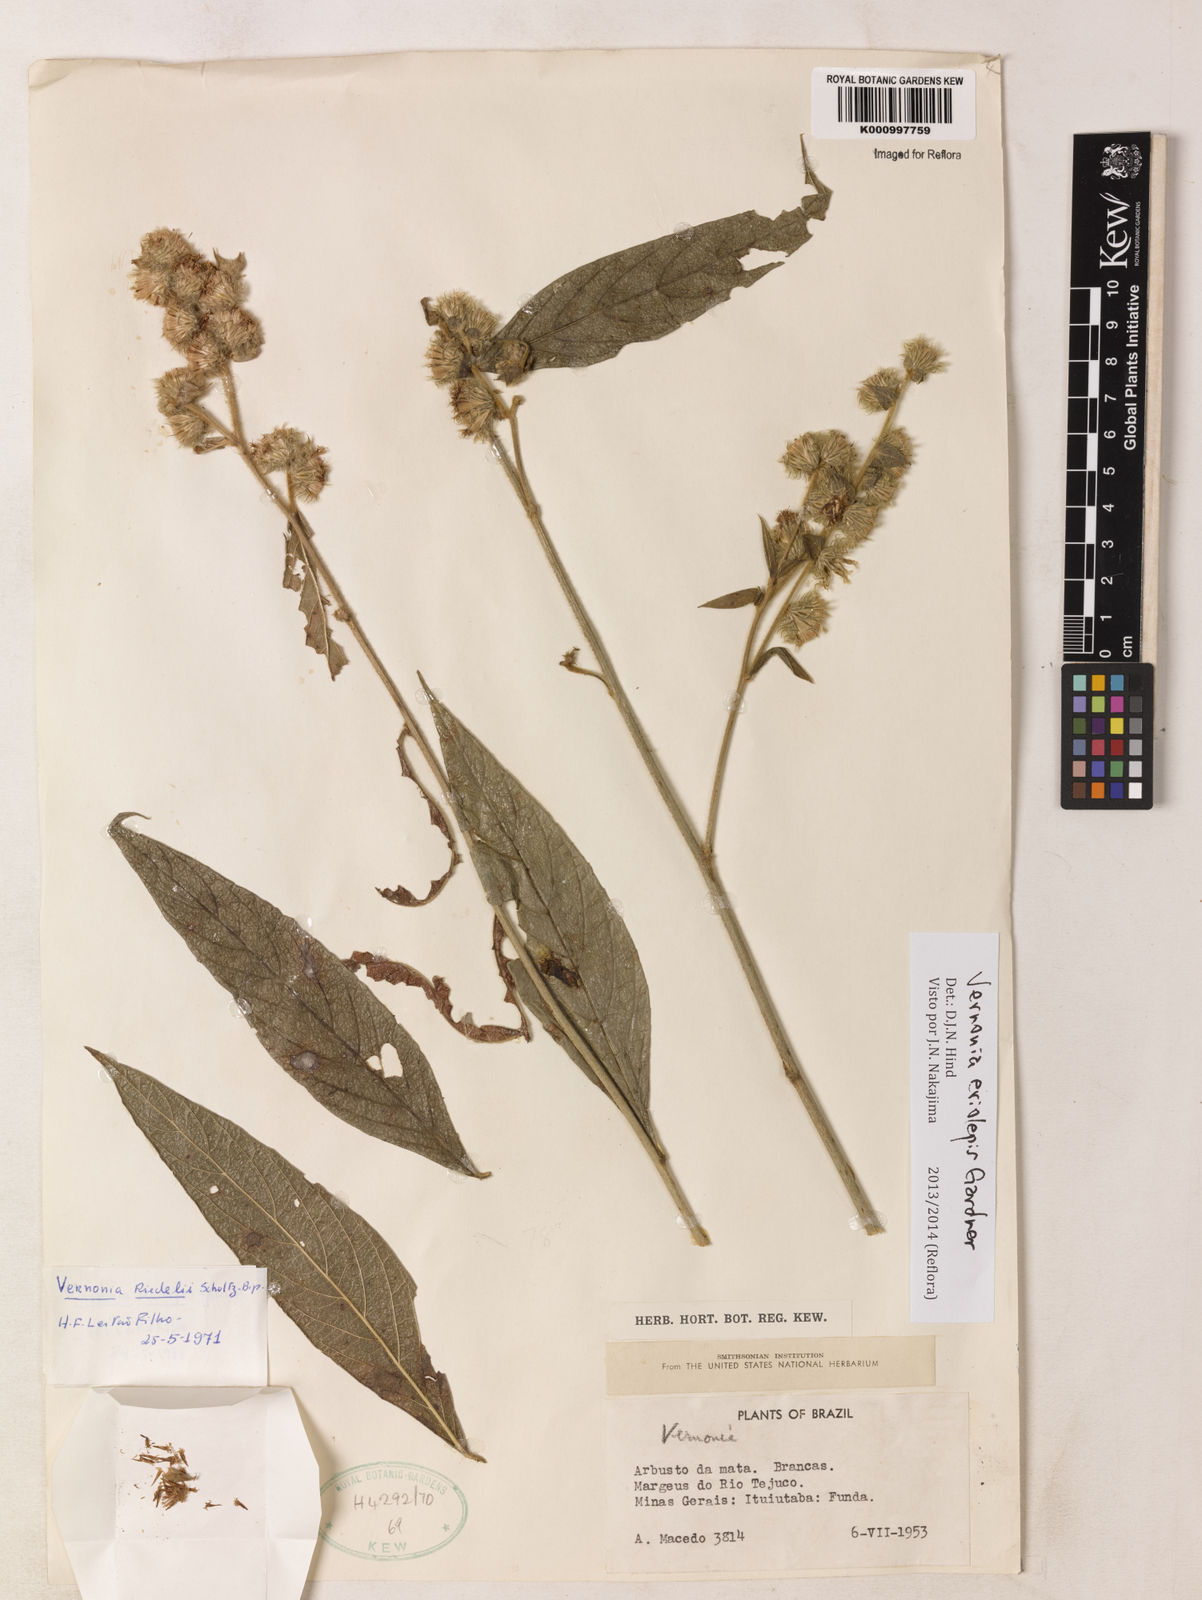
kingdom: Plantae
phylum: Tracheophyta
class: Magnoliopsida
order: Asterales
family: Asteraceae
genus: Lepidaploa
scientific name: Lepidaploa eriolepis
